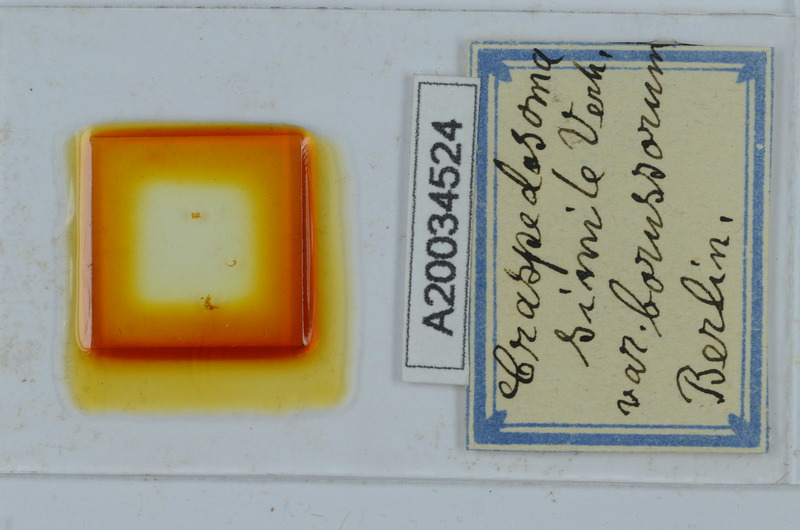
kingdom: Animalia
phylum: Arthropoda
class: Diplopoda
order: Chordeumatida
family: Craspedosomatidae
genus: Craspedosoma
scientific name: Craspedosoma slavum
